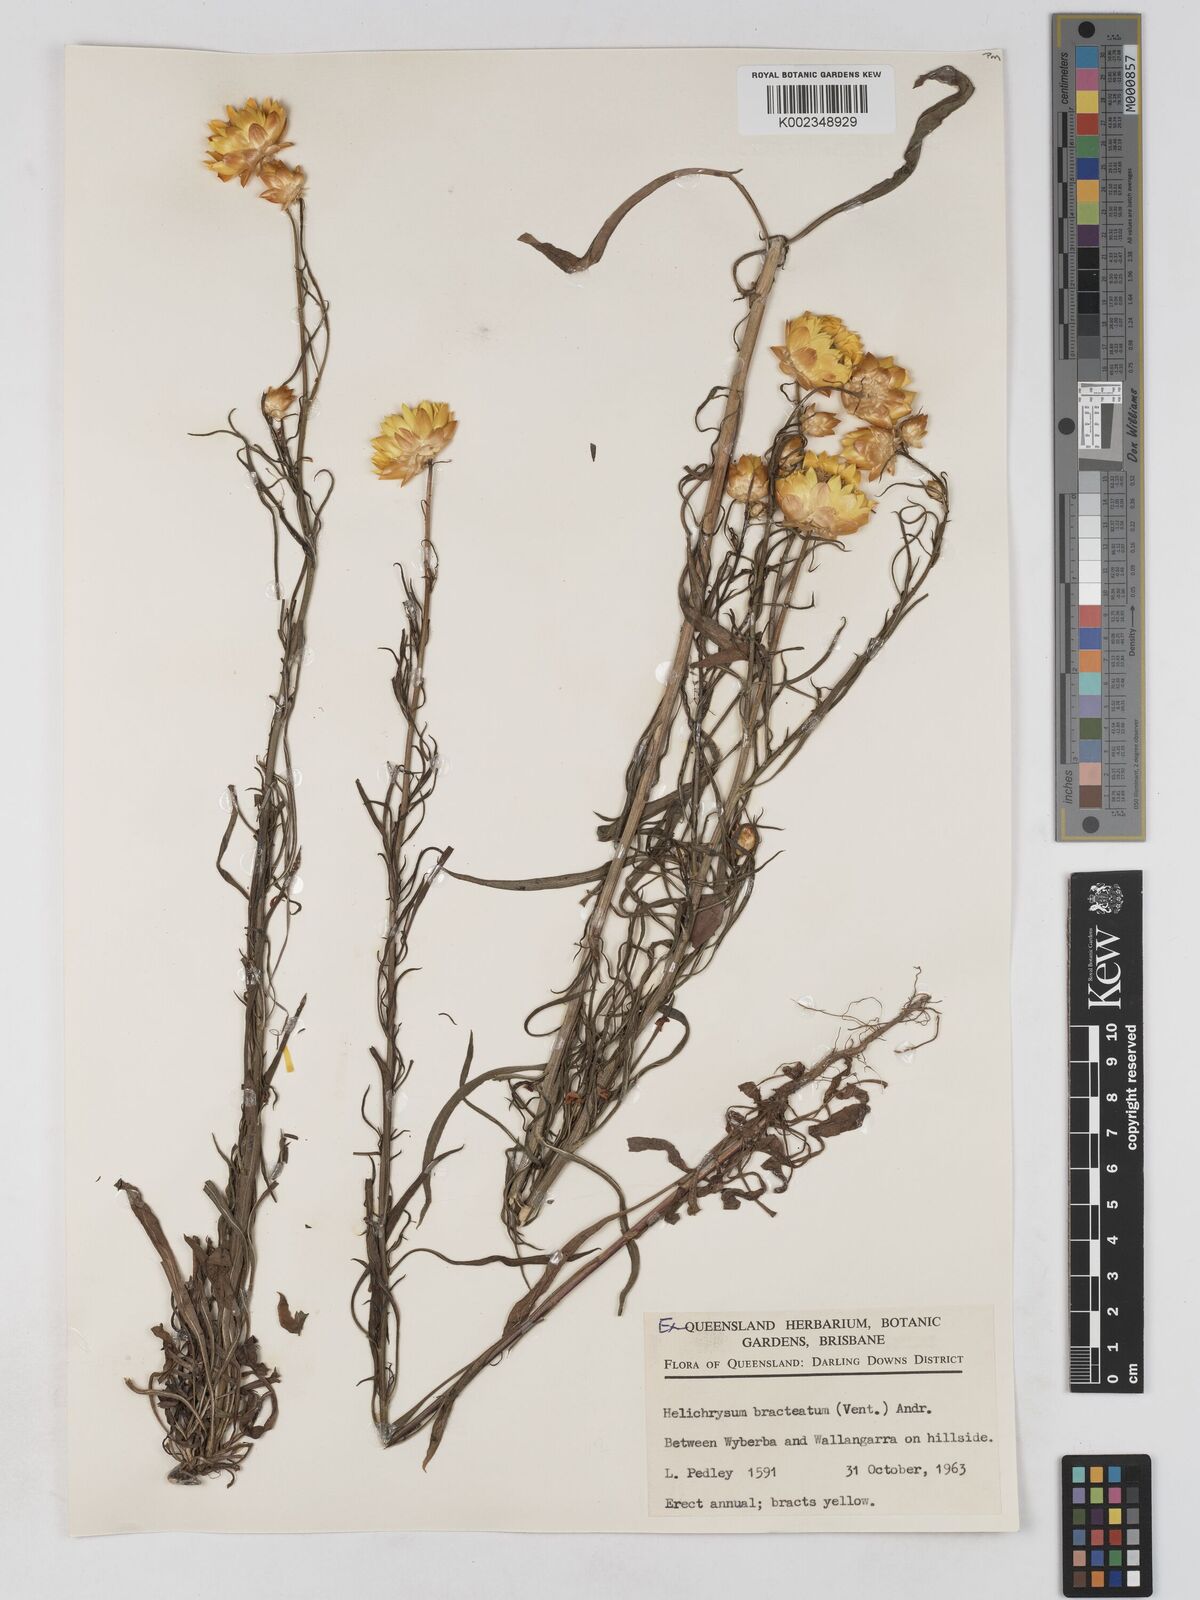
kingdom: Plantae
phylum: Tracheophyta
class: Magnoliopsida
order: Asterales
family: Asteraceae
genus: Xerochrysum
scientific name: Xerochrysum bracteatum
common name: Bracted strawflower
